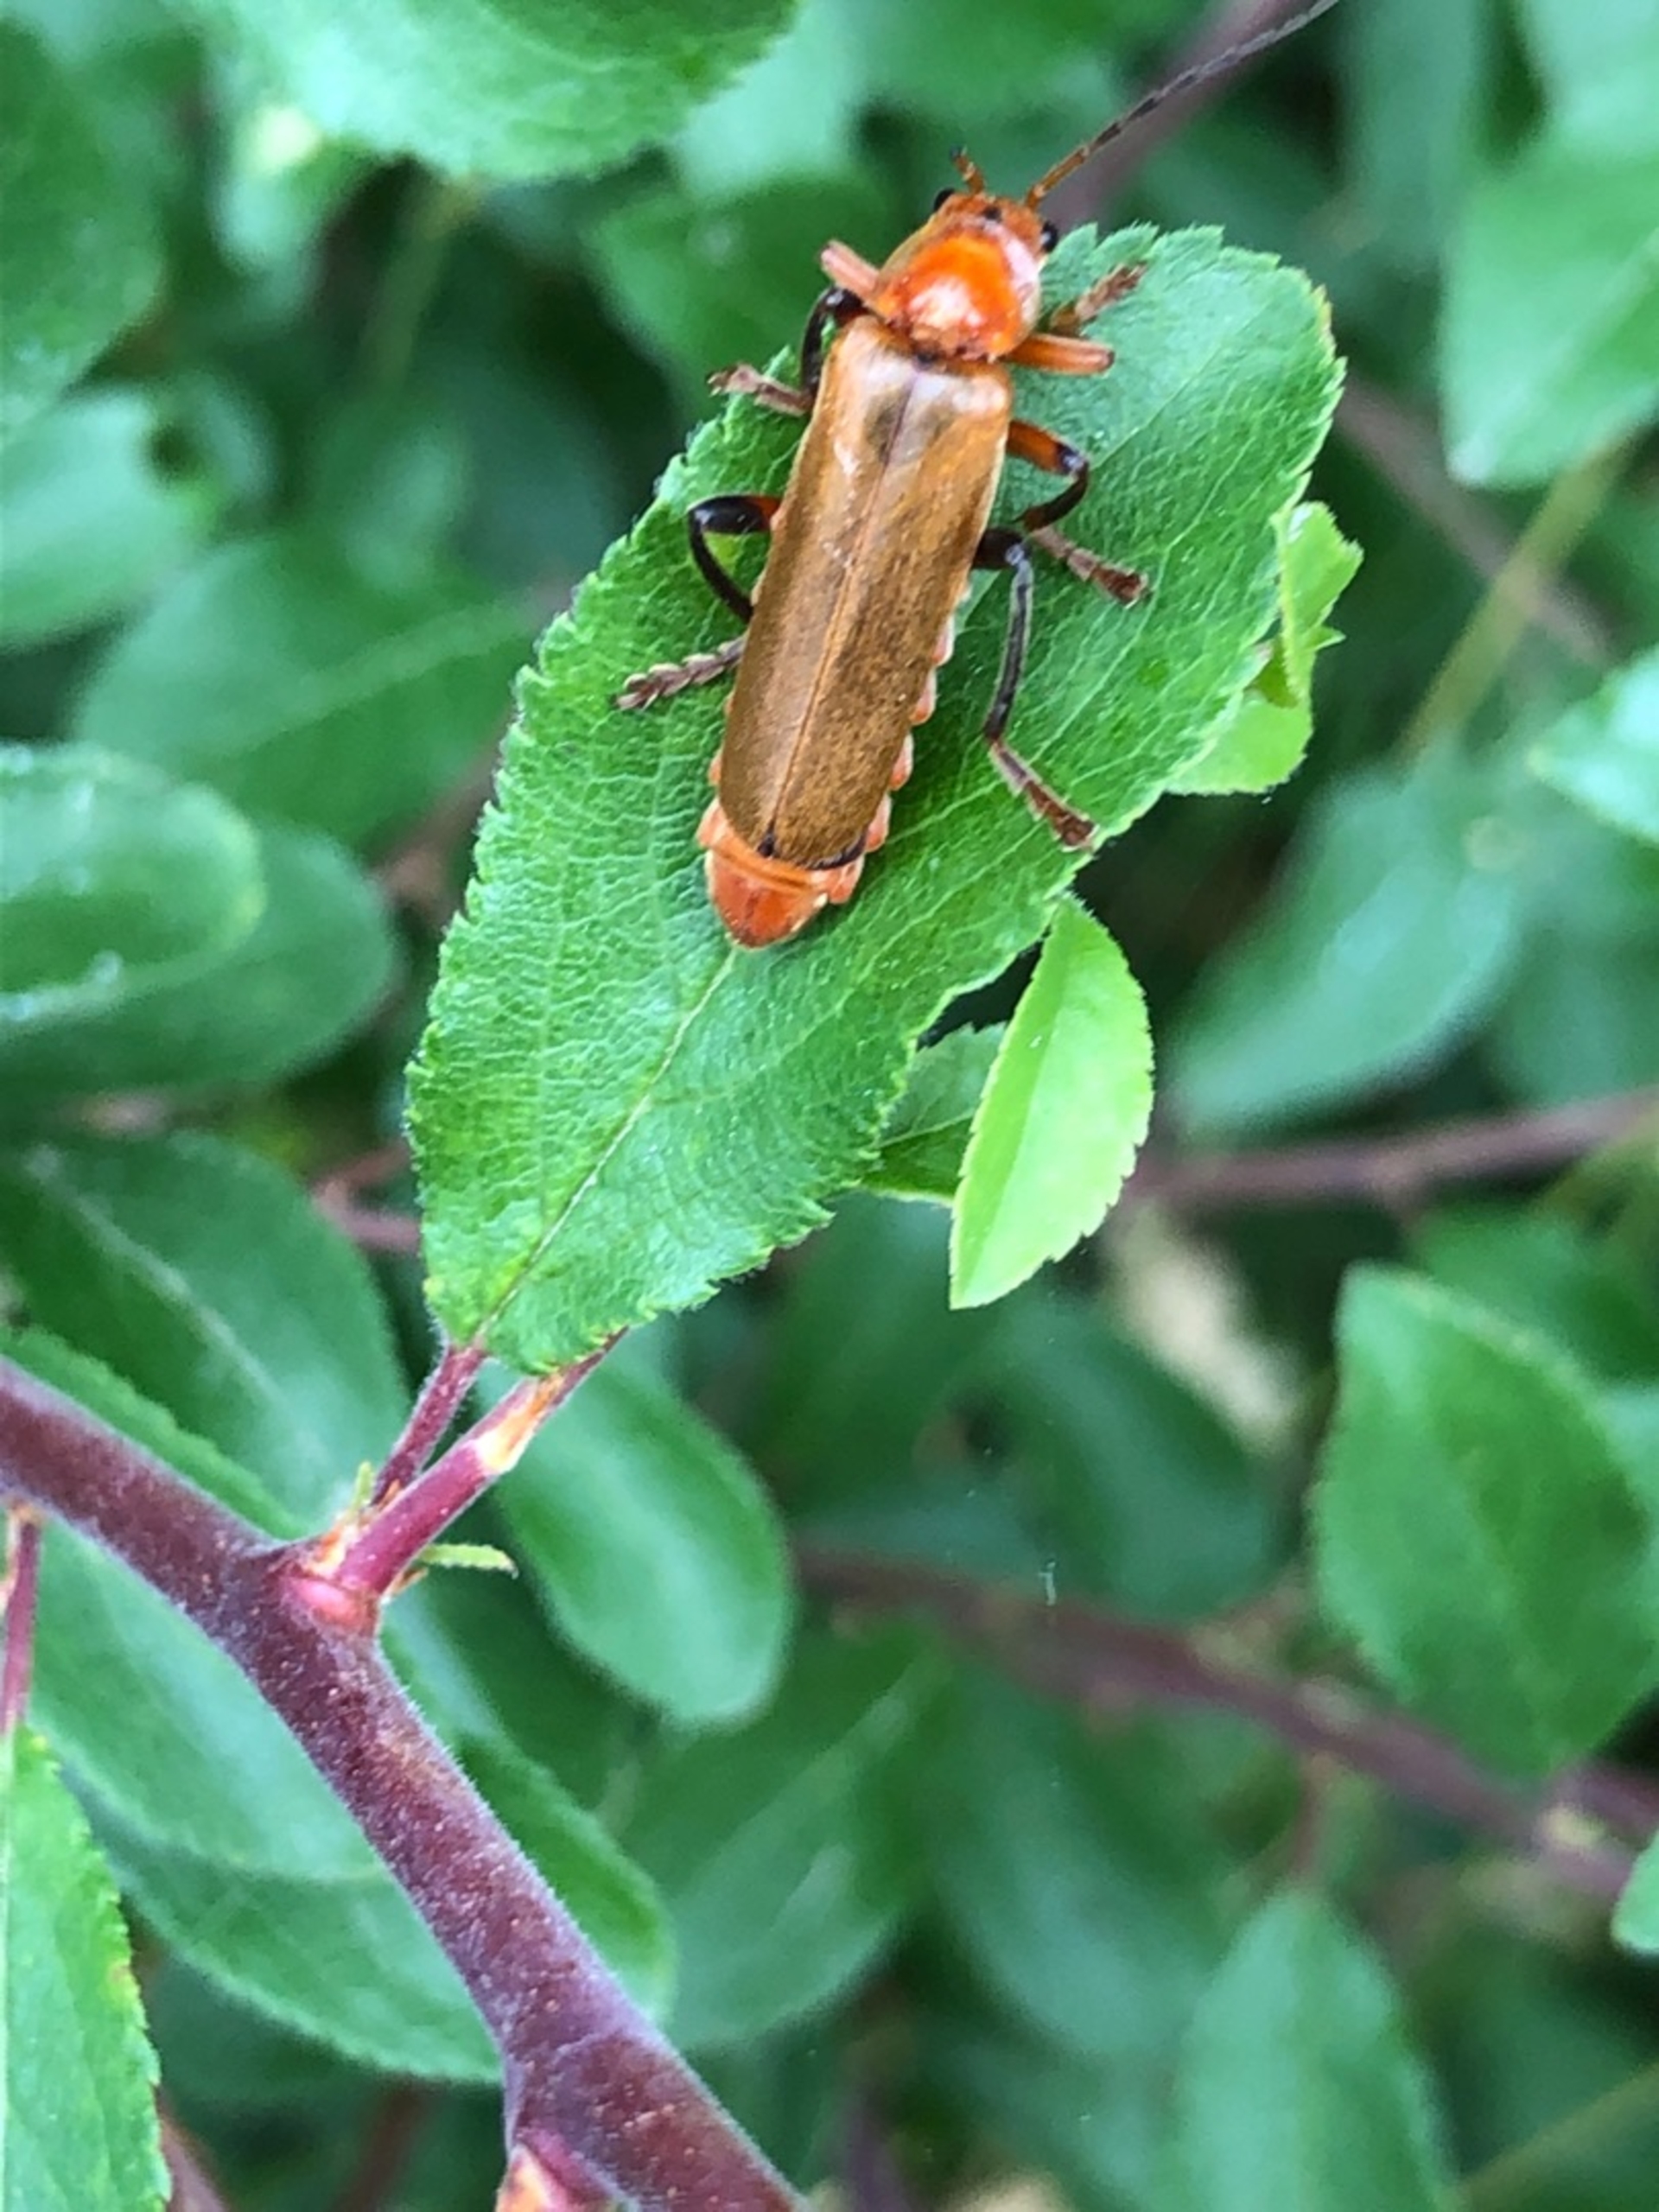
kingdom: Animalia
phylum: Arthropoda
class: Insecta
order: Coleoptera
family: Cantharidae
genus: Cantharis
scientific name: Cantharis livida
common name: Gul blødvinge
